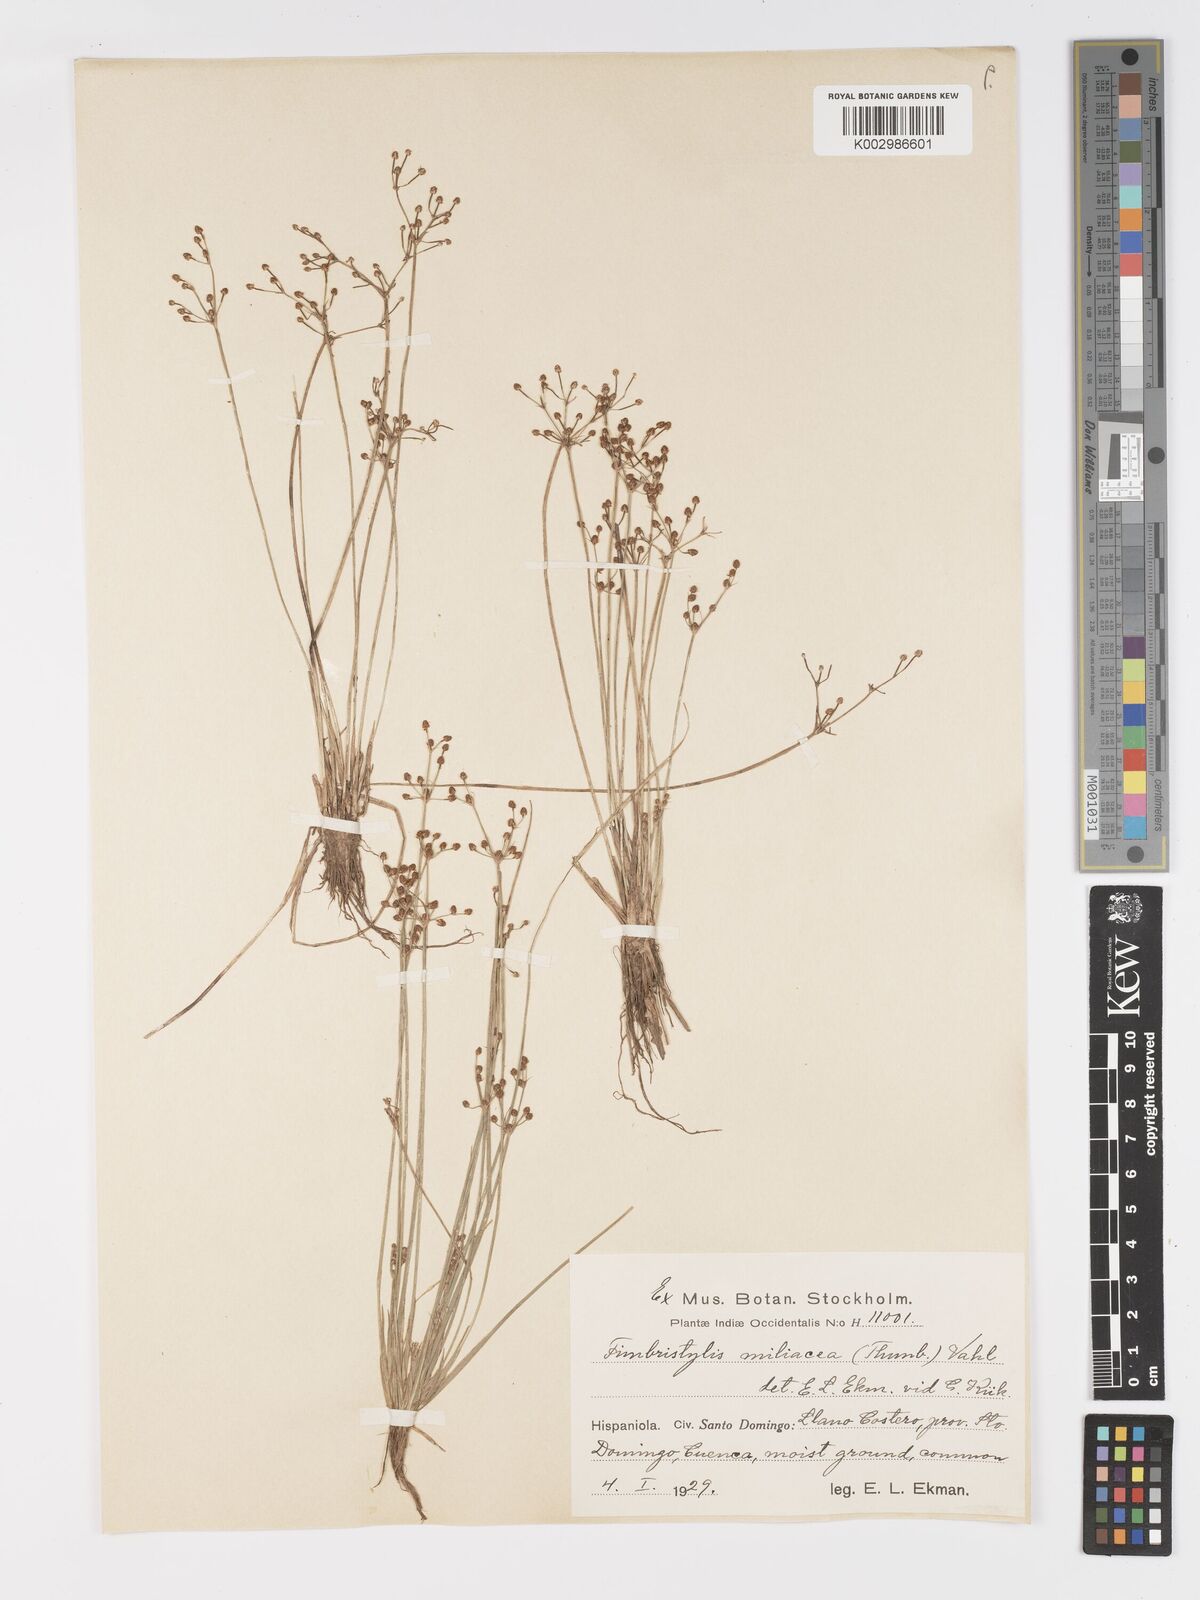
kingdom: Plantae
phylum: Tracheophyta
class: Liliopsida
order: Poales
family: Cyperaceae
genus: Fimbristylis
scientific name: Fimbristylis littoralis
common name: Fimbry
